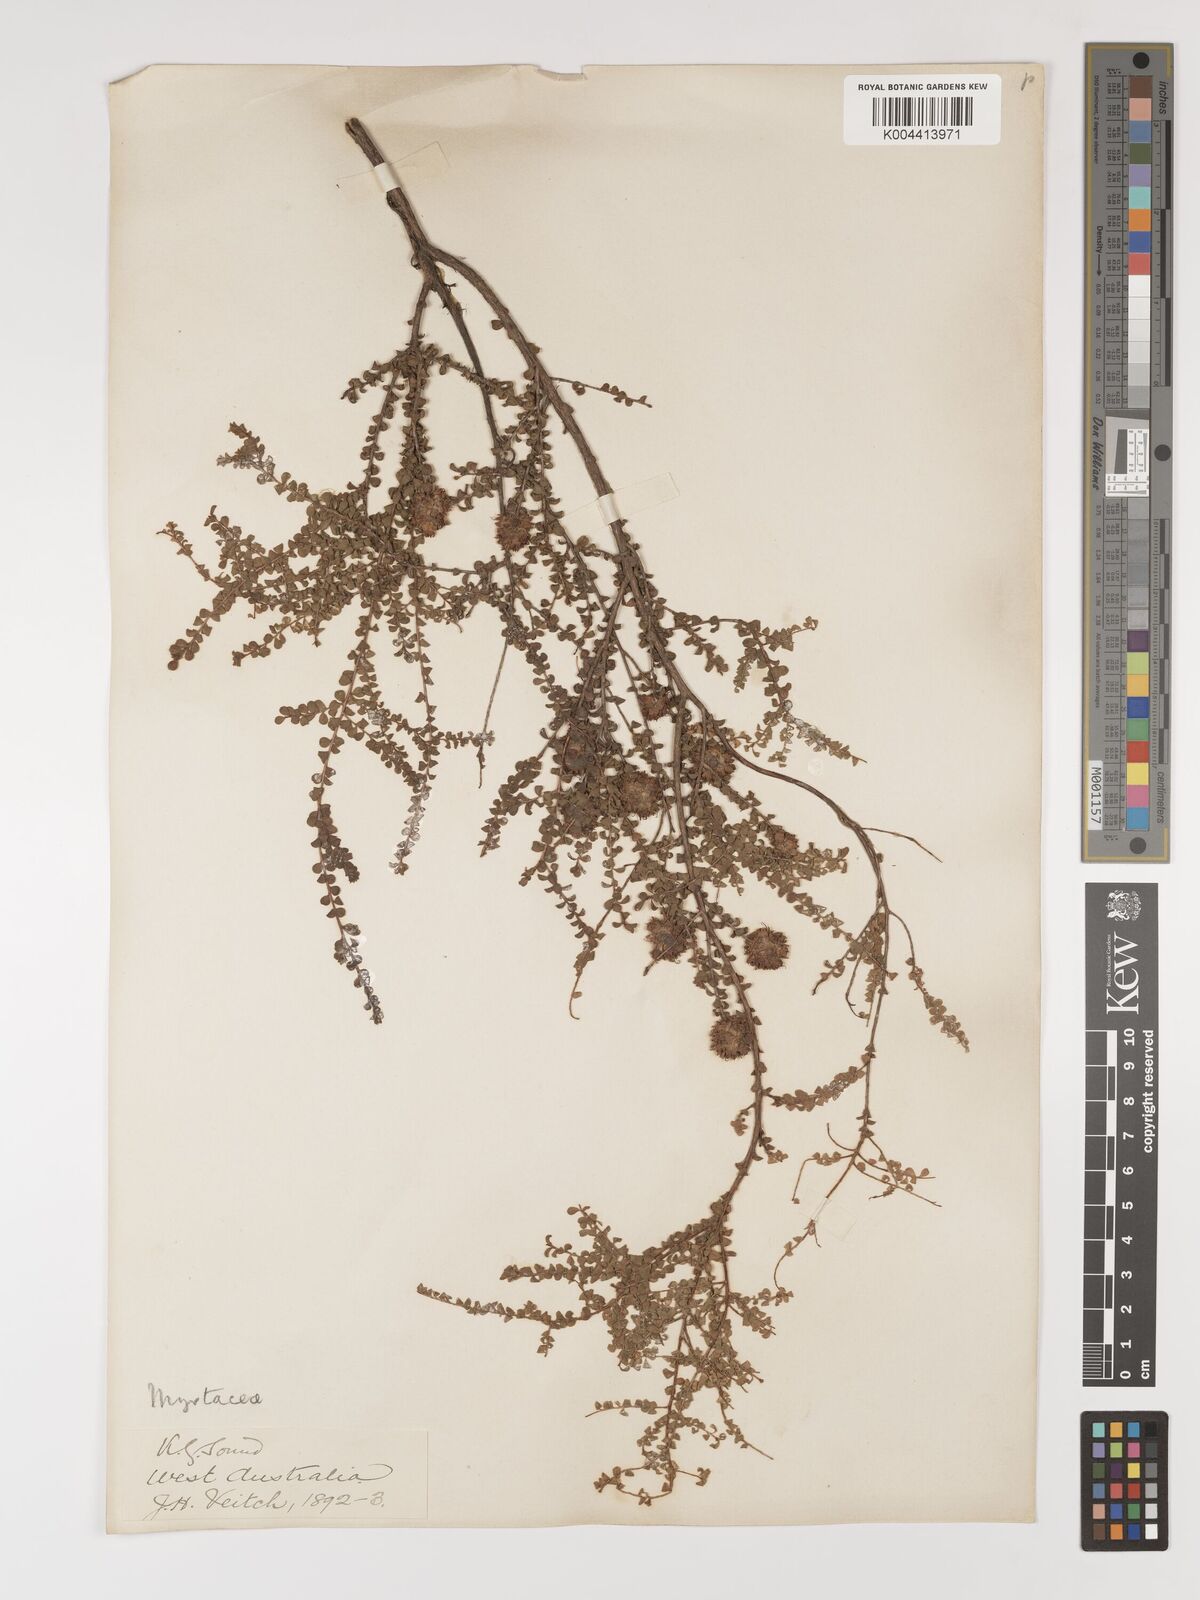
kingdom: Plantae
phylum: Tracheophyta
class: Magnoliopsida
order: Myrtales
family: Myrtaceae
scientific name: Myrtaceae
